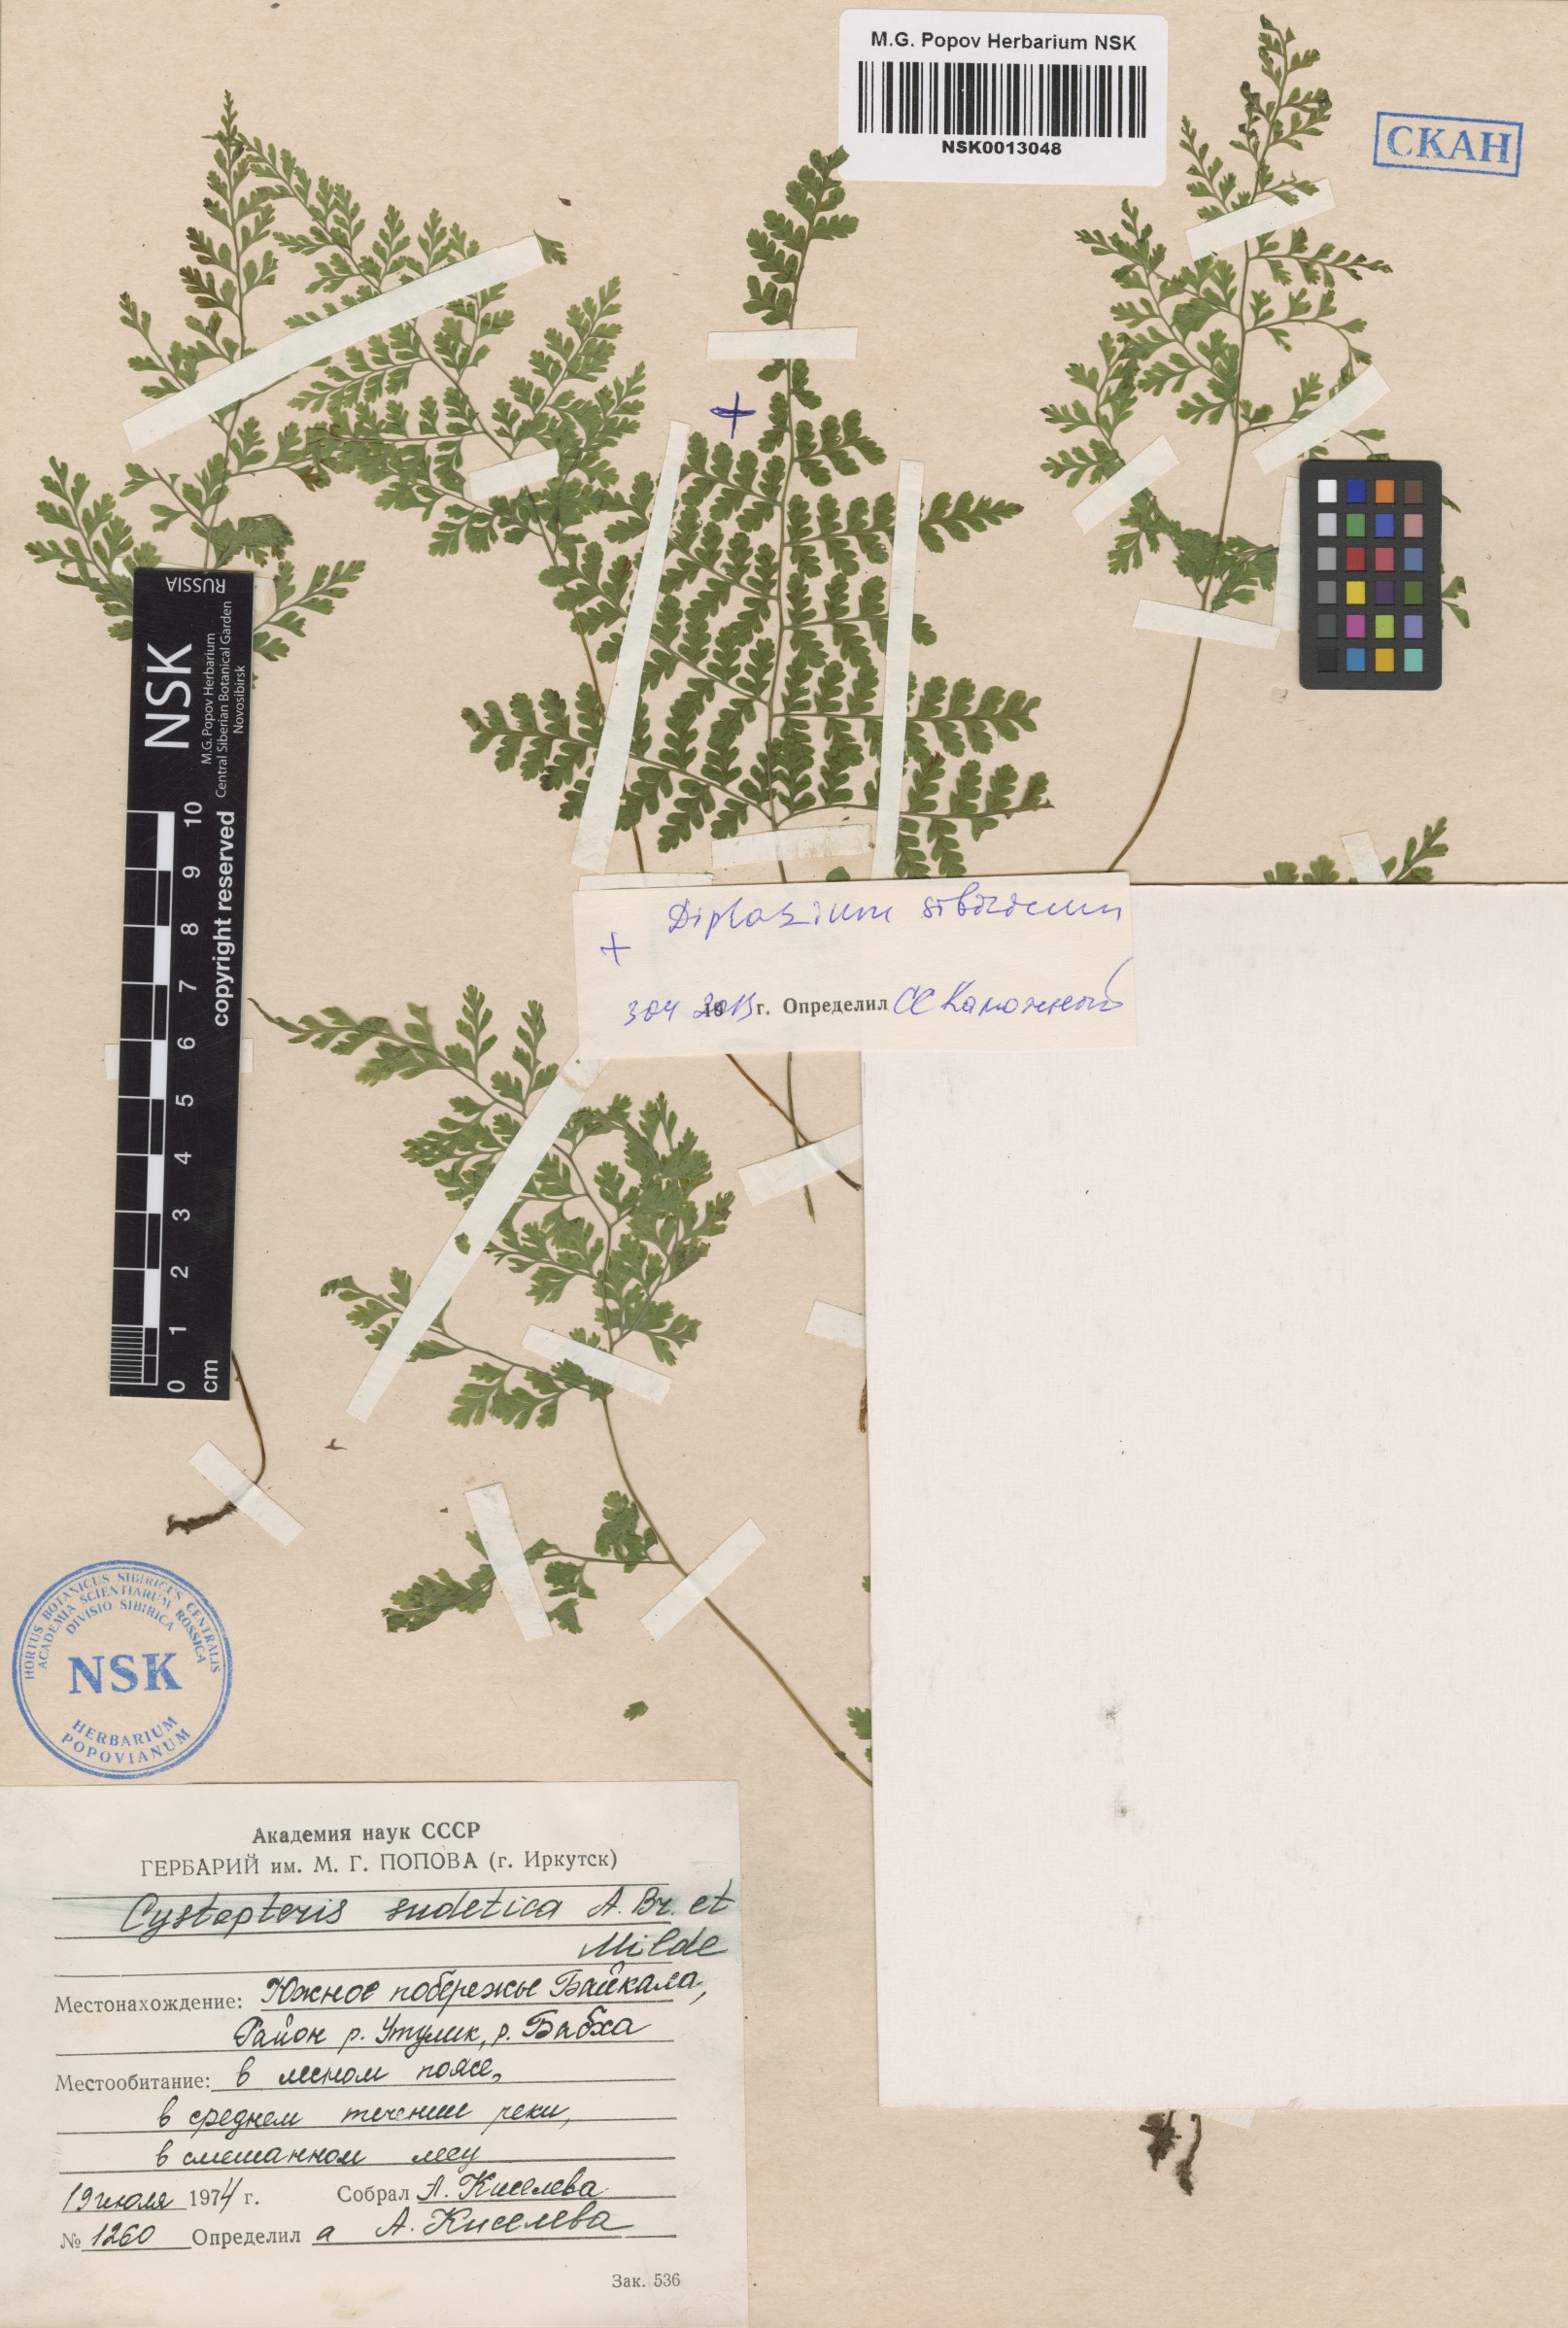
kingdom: Plantae
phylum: Tracheophyta
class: Polypodiopsida
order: Polypodiales
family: Athyriaceae
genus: Diplazium
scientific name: Diplazium sibiricum
